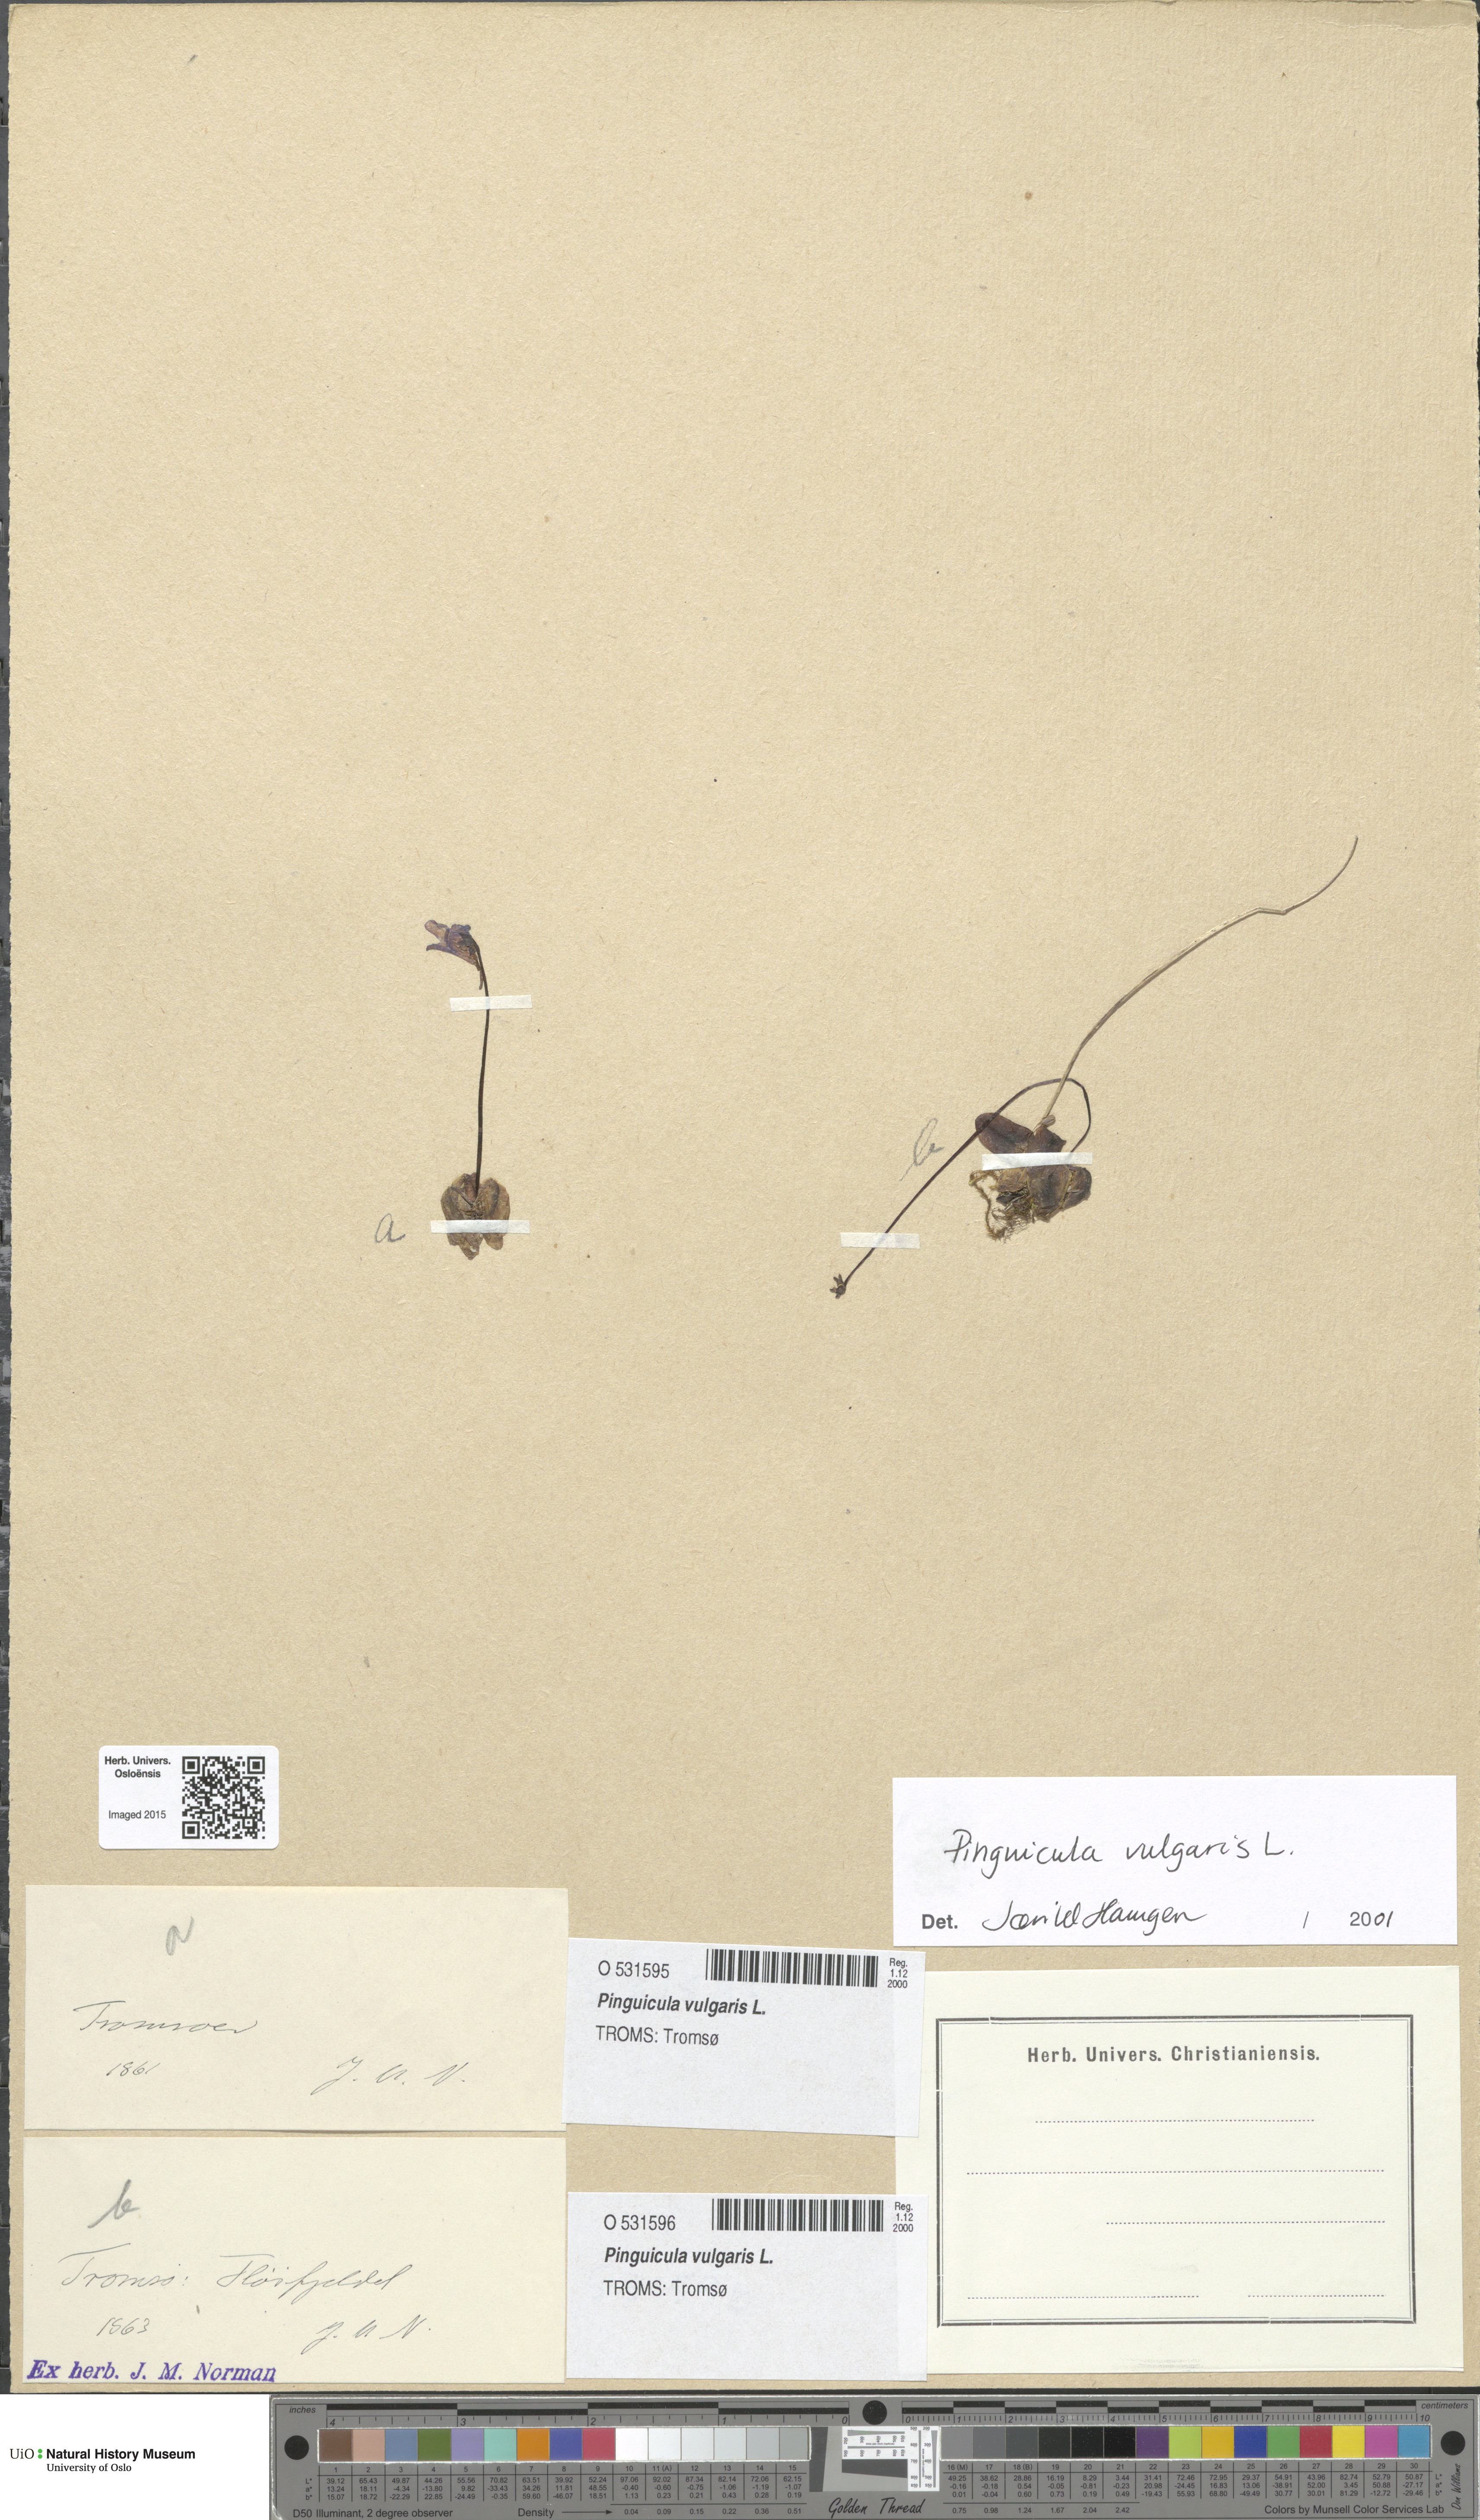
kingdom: Plantae
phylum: Tracheophyta
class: Magnoliopsida
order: Lamiales
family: Lentibulariaceae
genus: Pinguicula
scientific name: Pinguicula vulgaris
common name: Common butterwort
